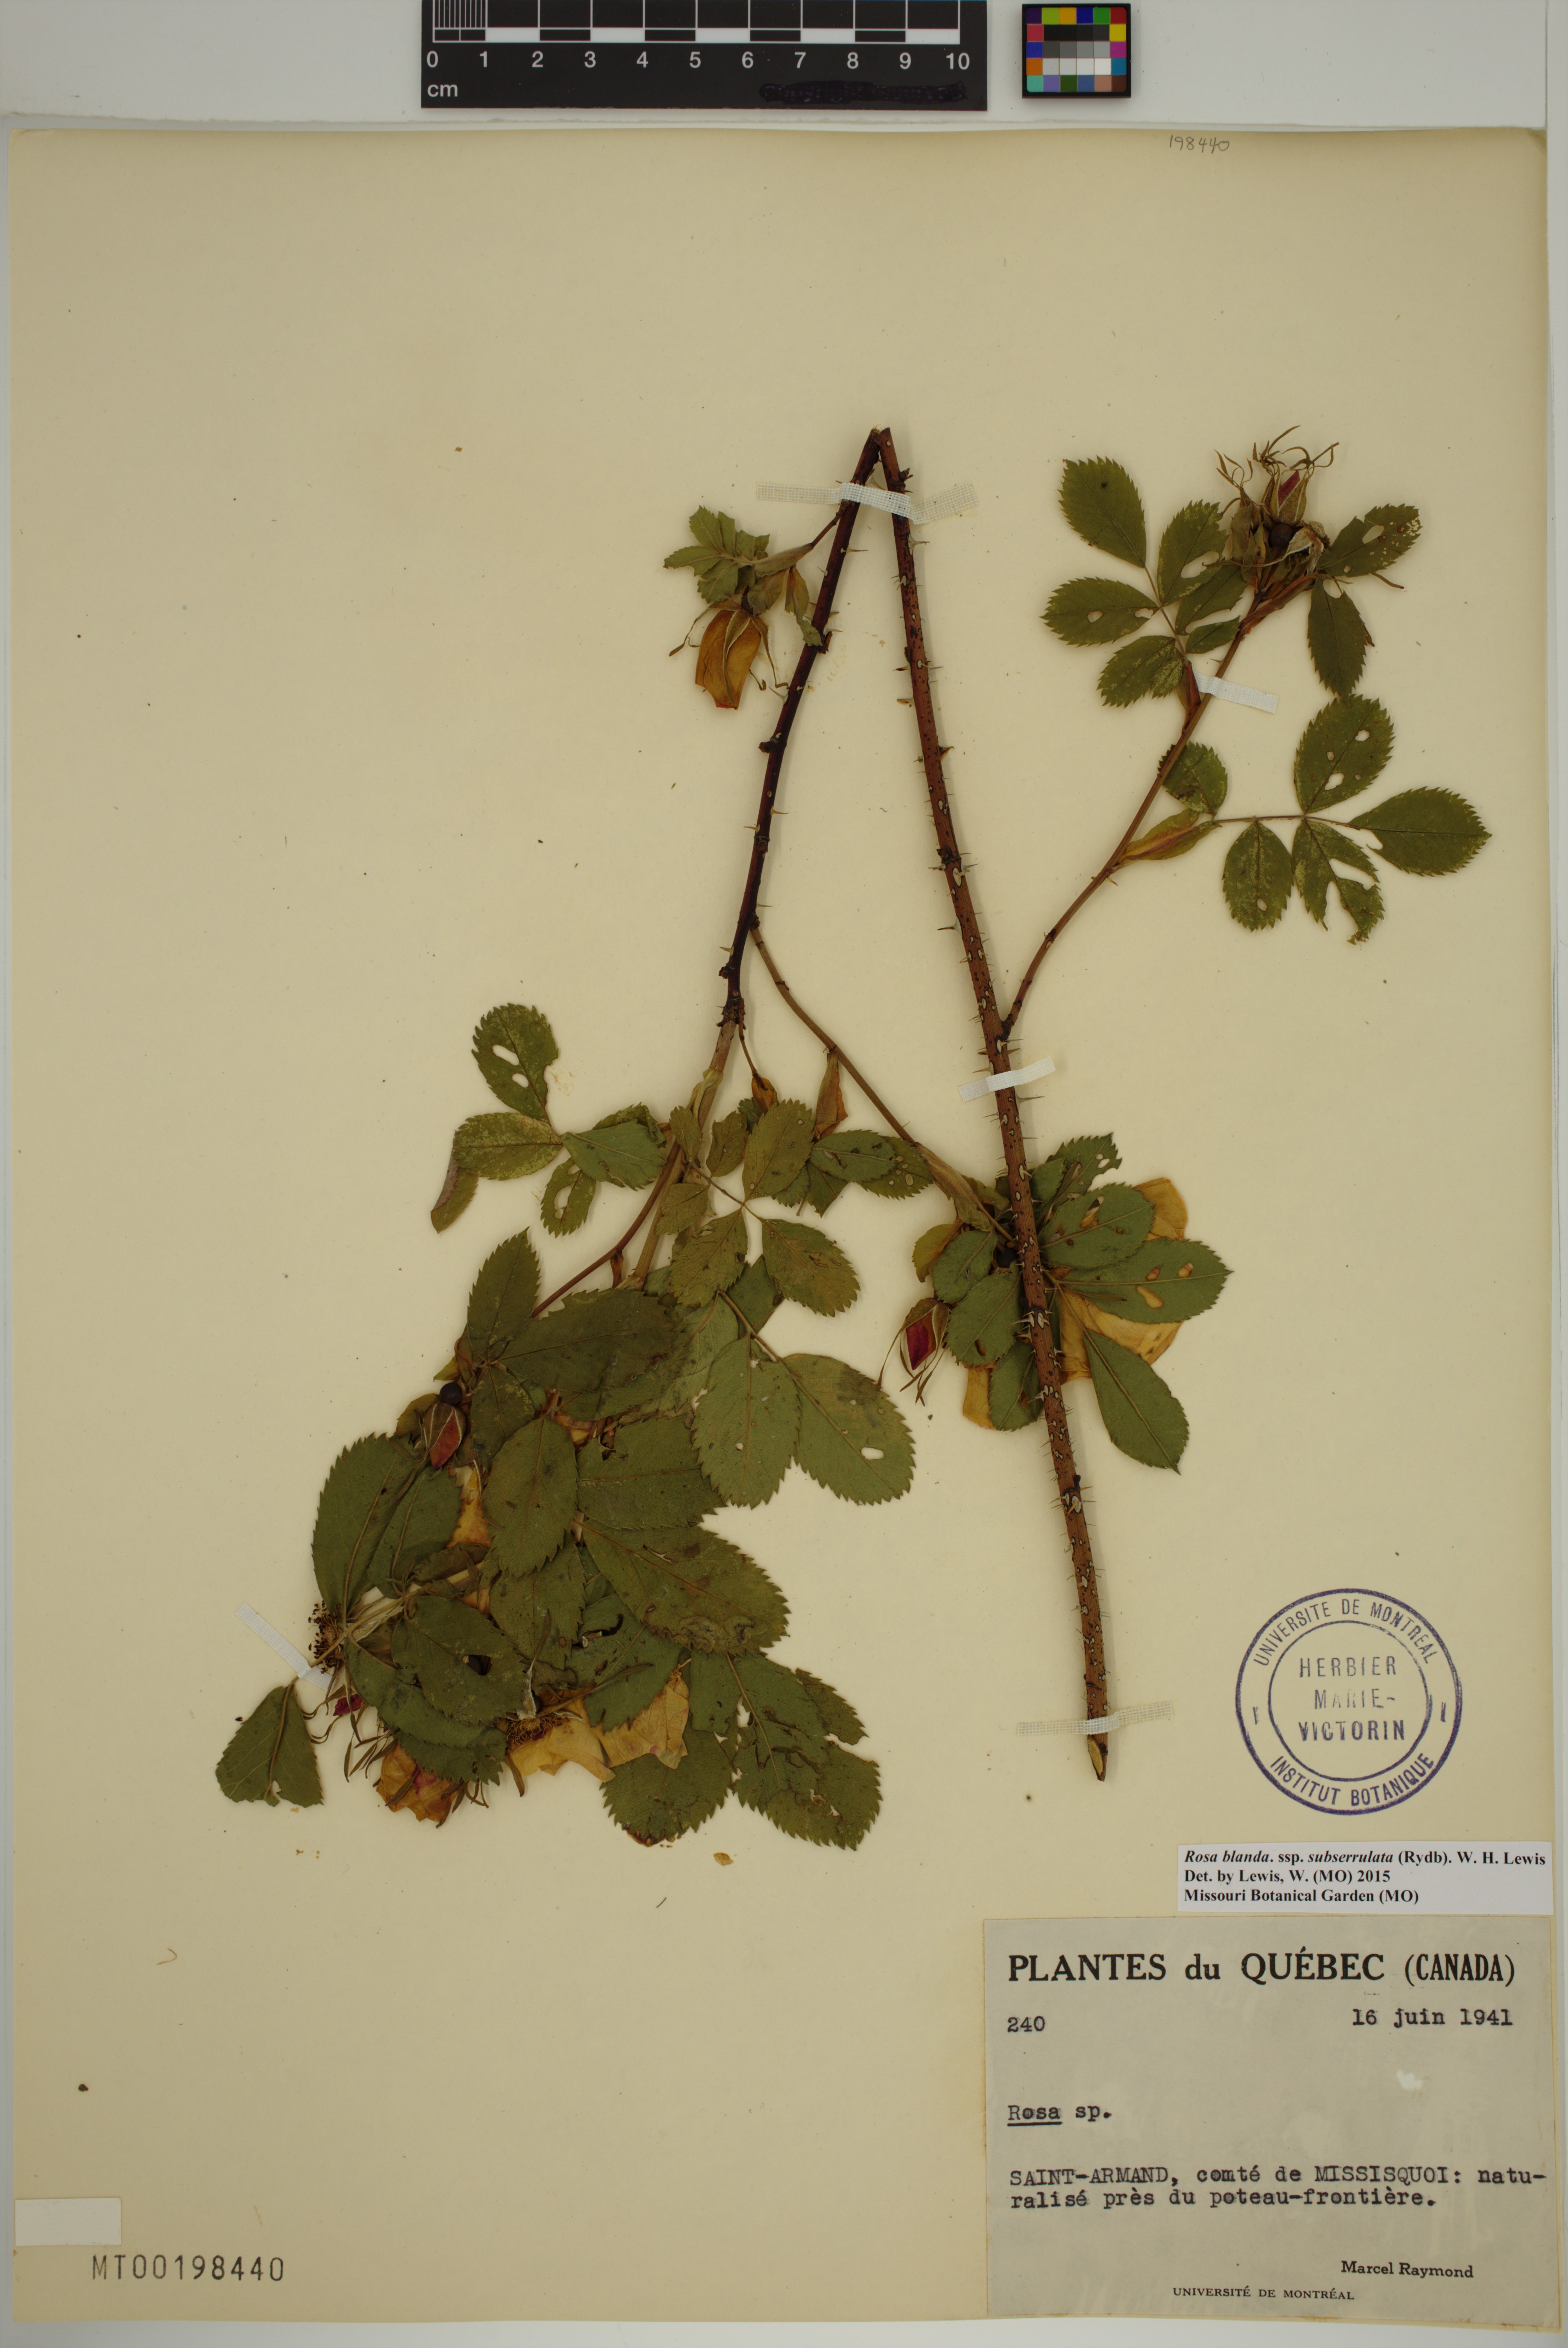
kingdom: Plantae
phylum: Tracheophyta
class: Magnoliopsida
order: Rosales
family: Rosaceae
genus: Rosa
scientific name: Rosa blanda
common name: Smooth rose
